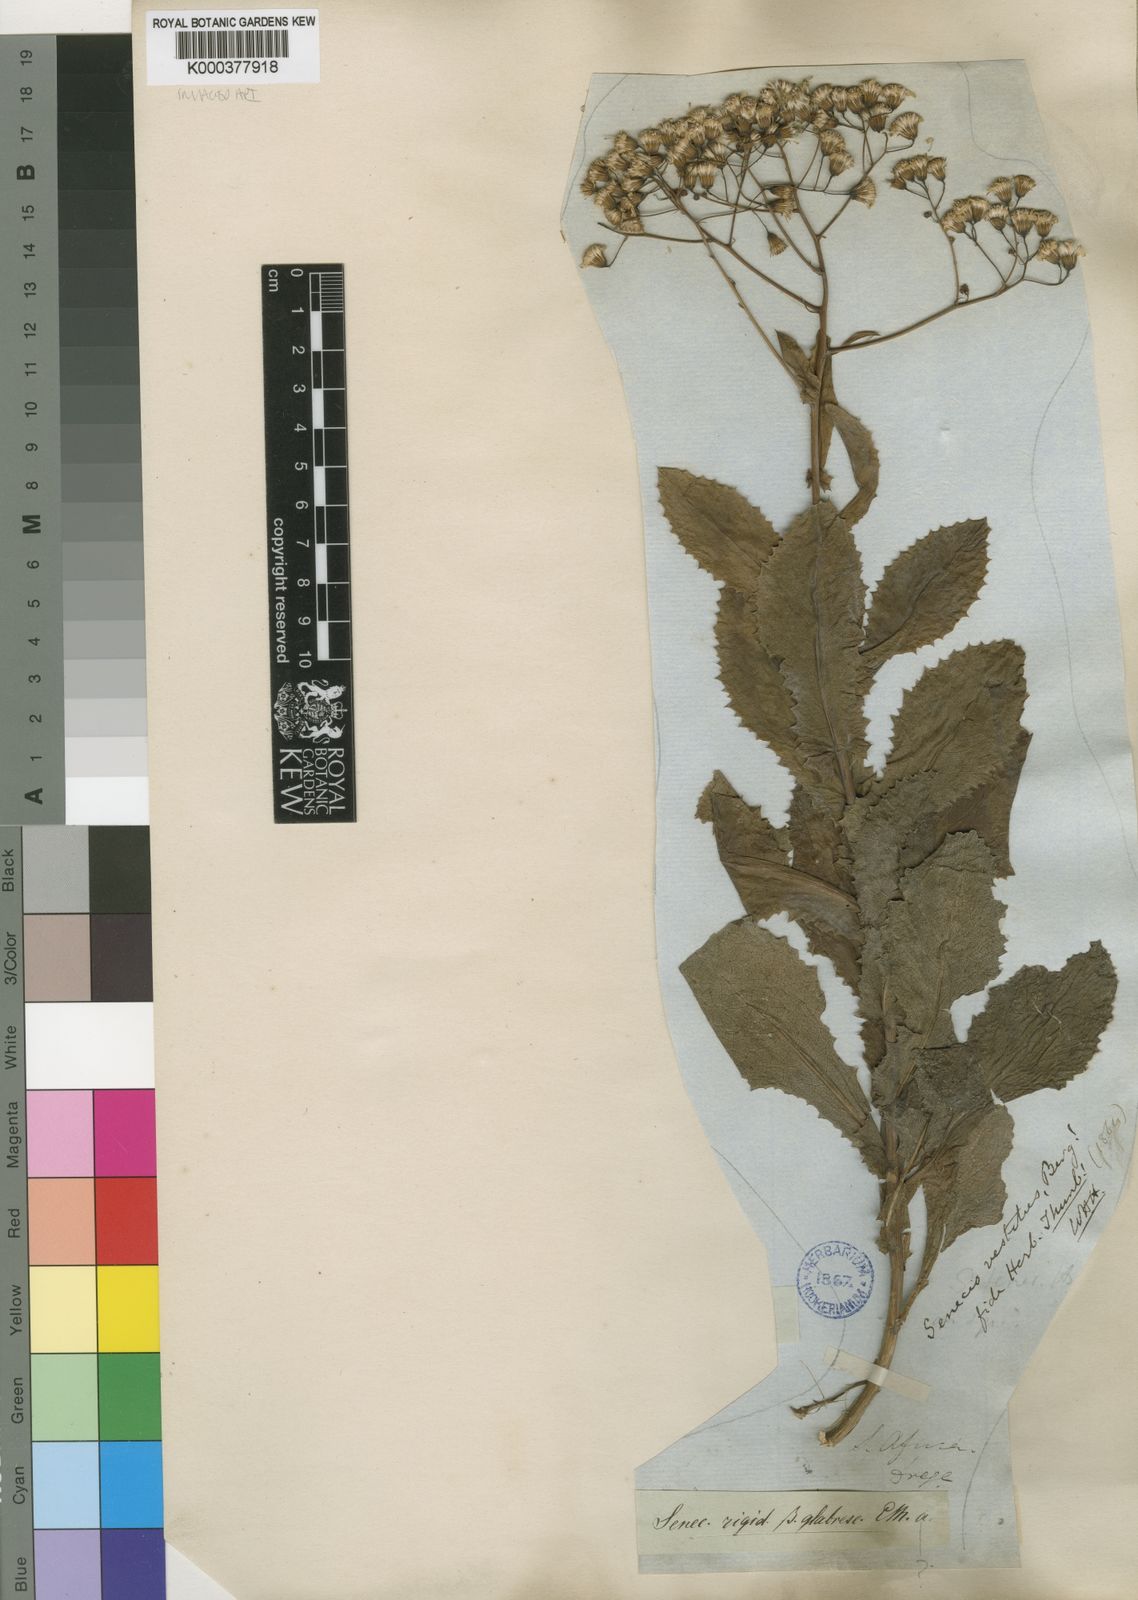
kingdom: Plantae
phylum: Tracheophyta
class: Magnoliopsida
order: Asterales
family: Asteraceae
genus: Senecio
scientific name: Senecio vestitus
